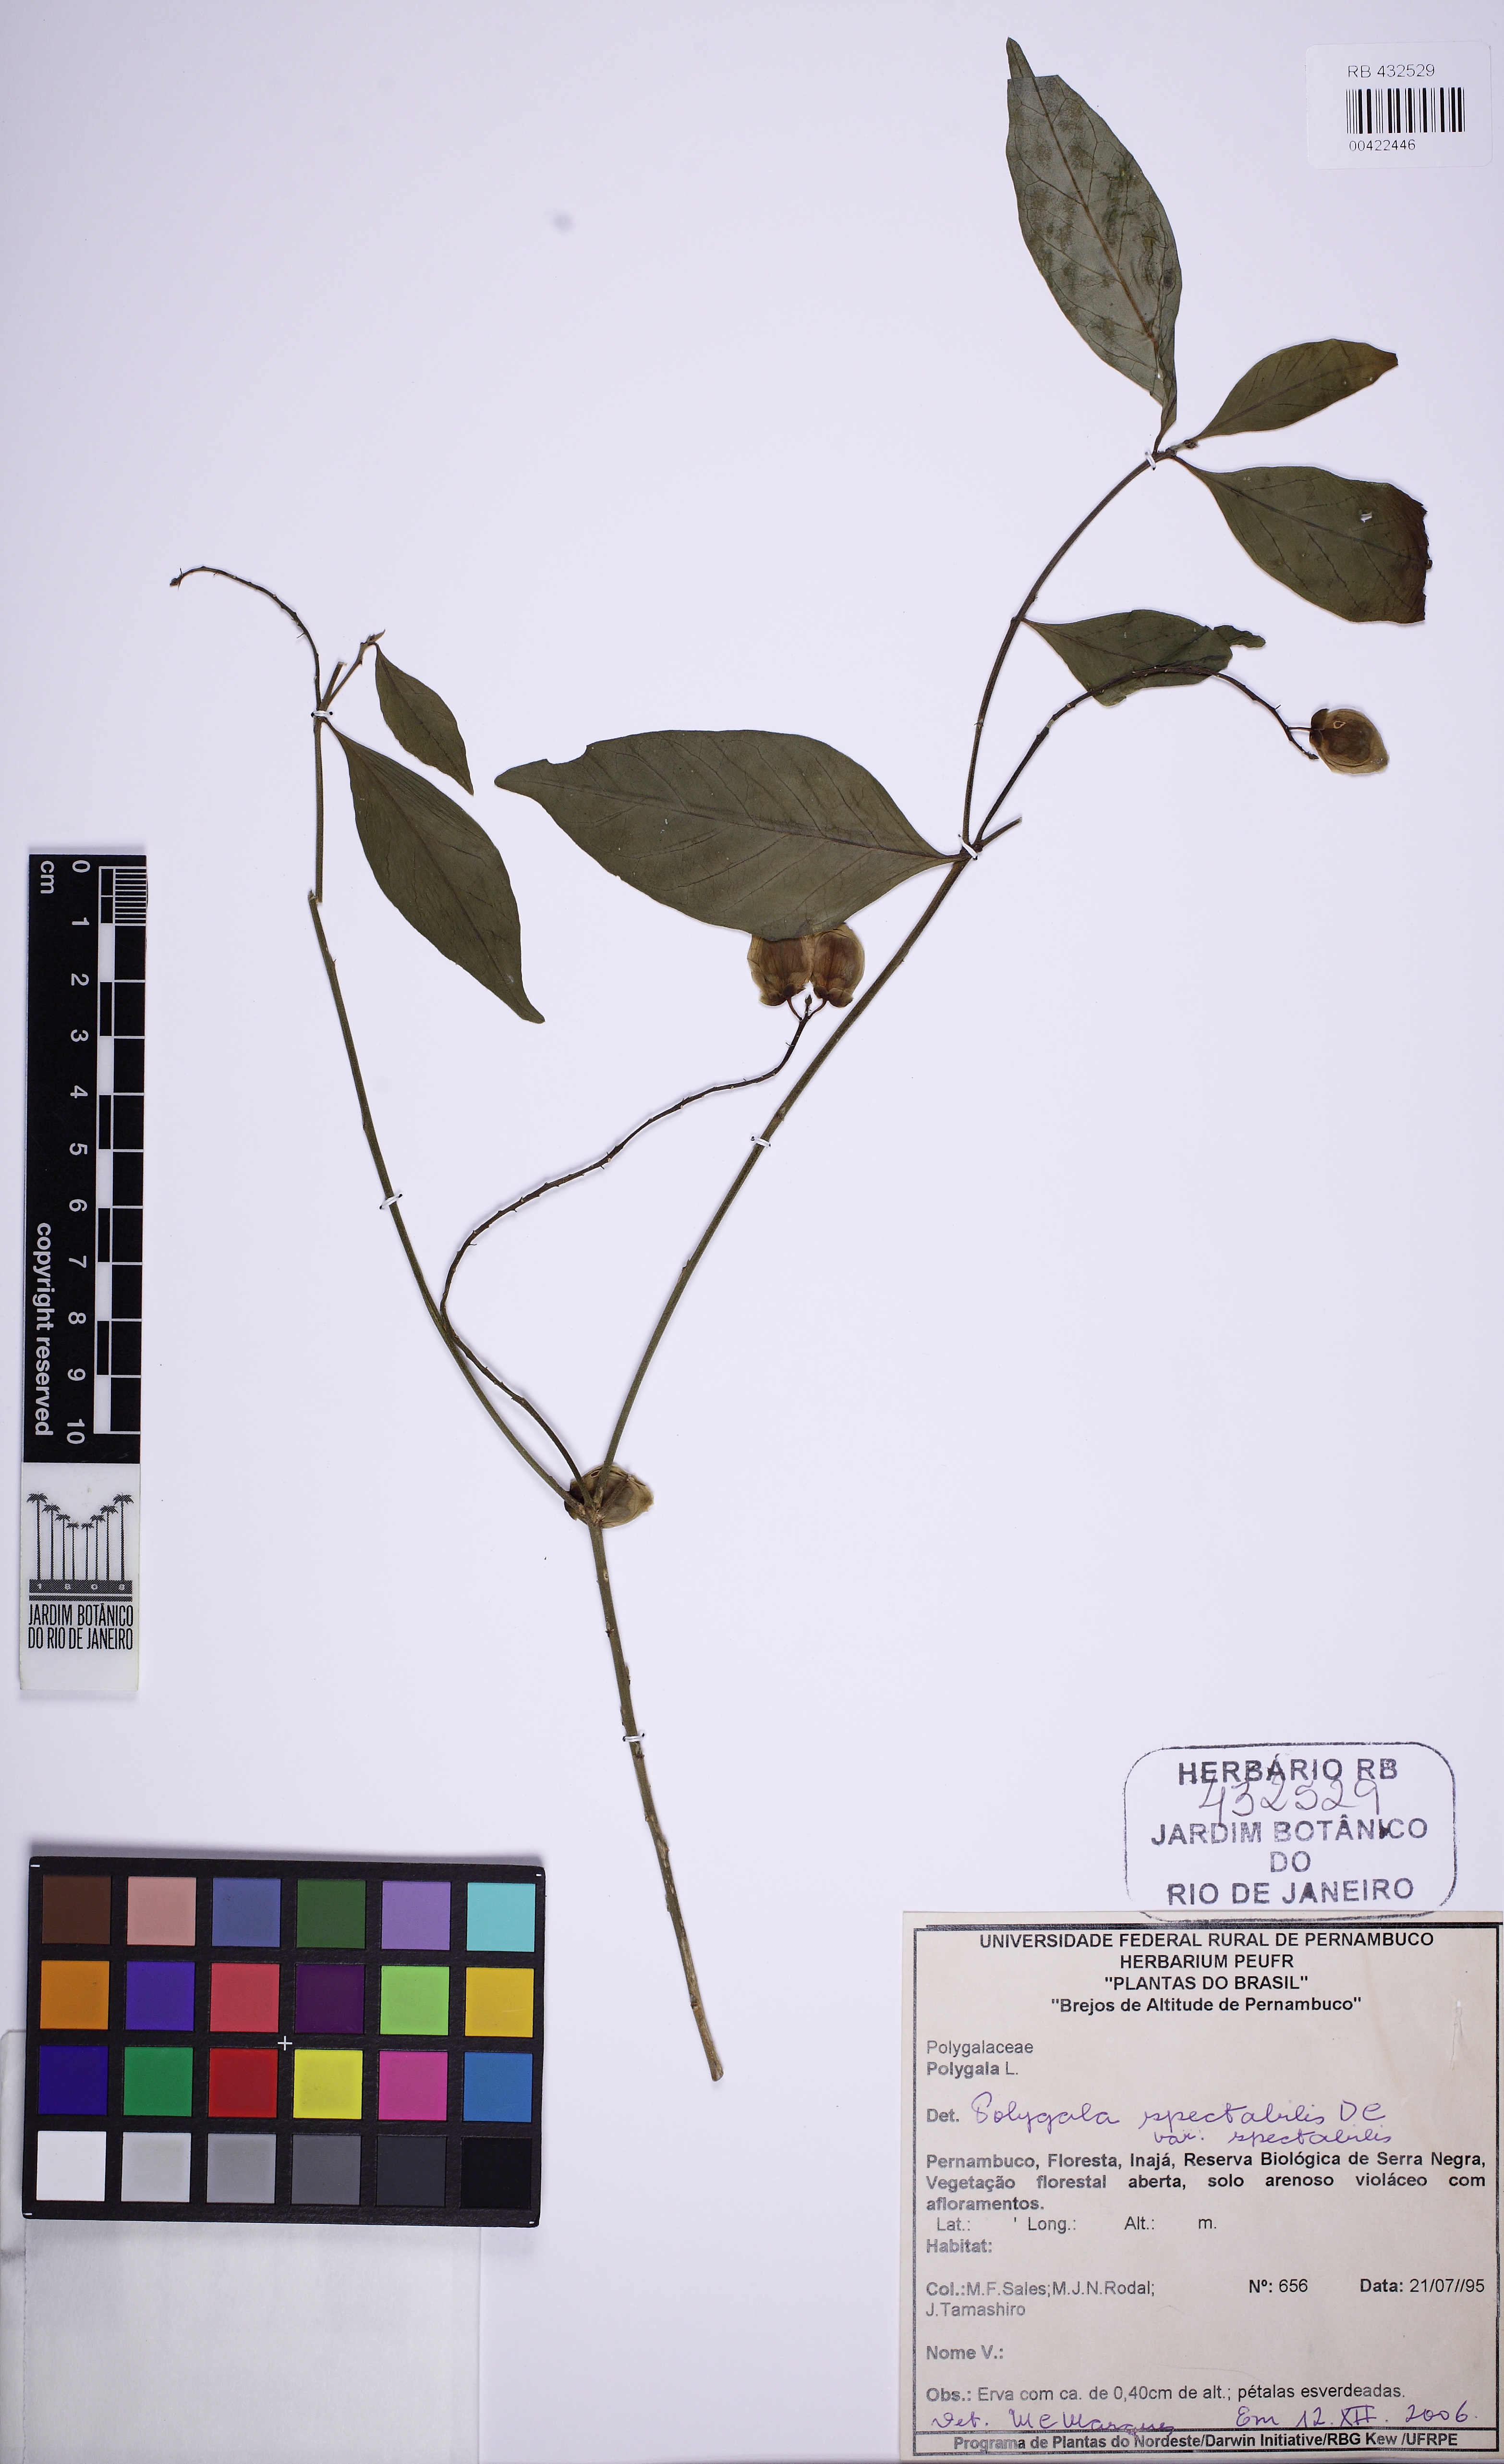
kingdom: Plantae
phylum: Tracheophyta
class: Magnoliopsida
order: Fabales
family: Polygalaceae
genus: Caamembeca
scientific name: Caamembeca spectabilis
